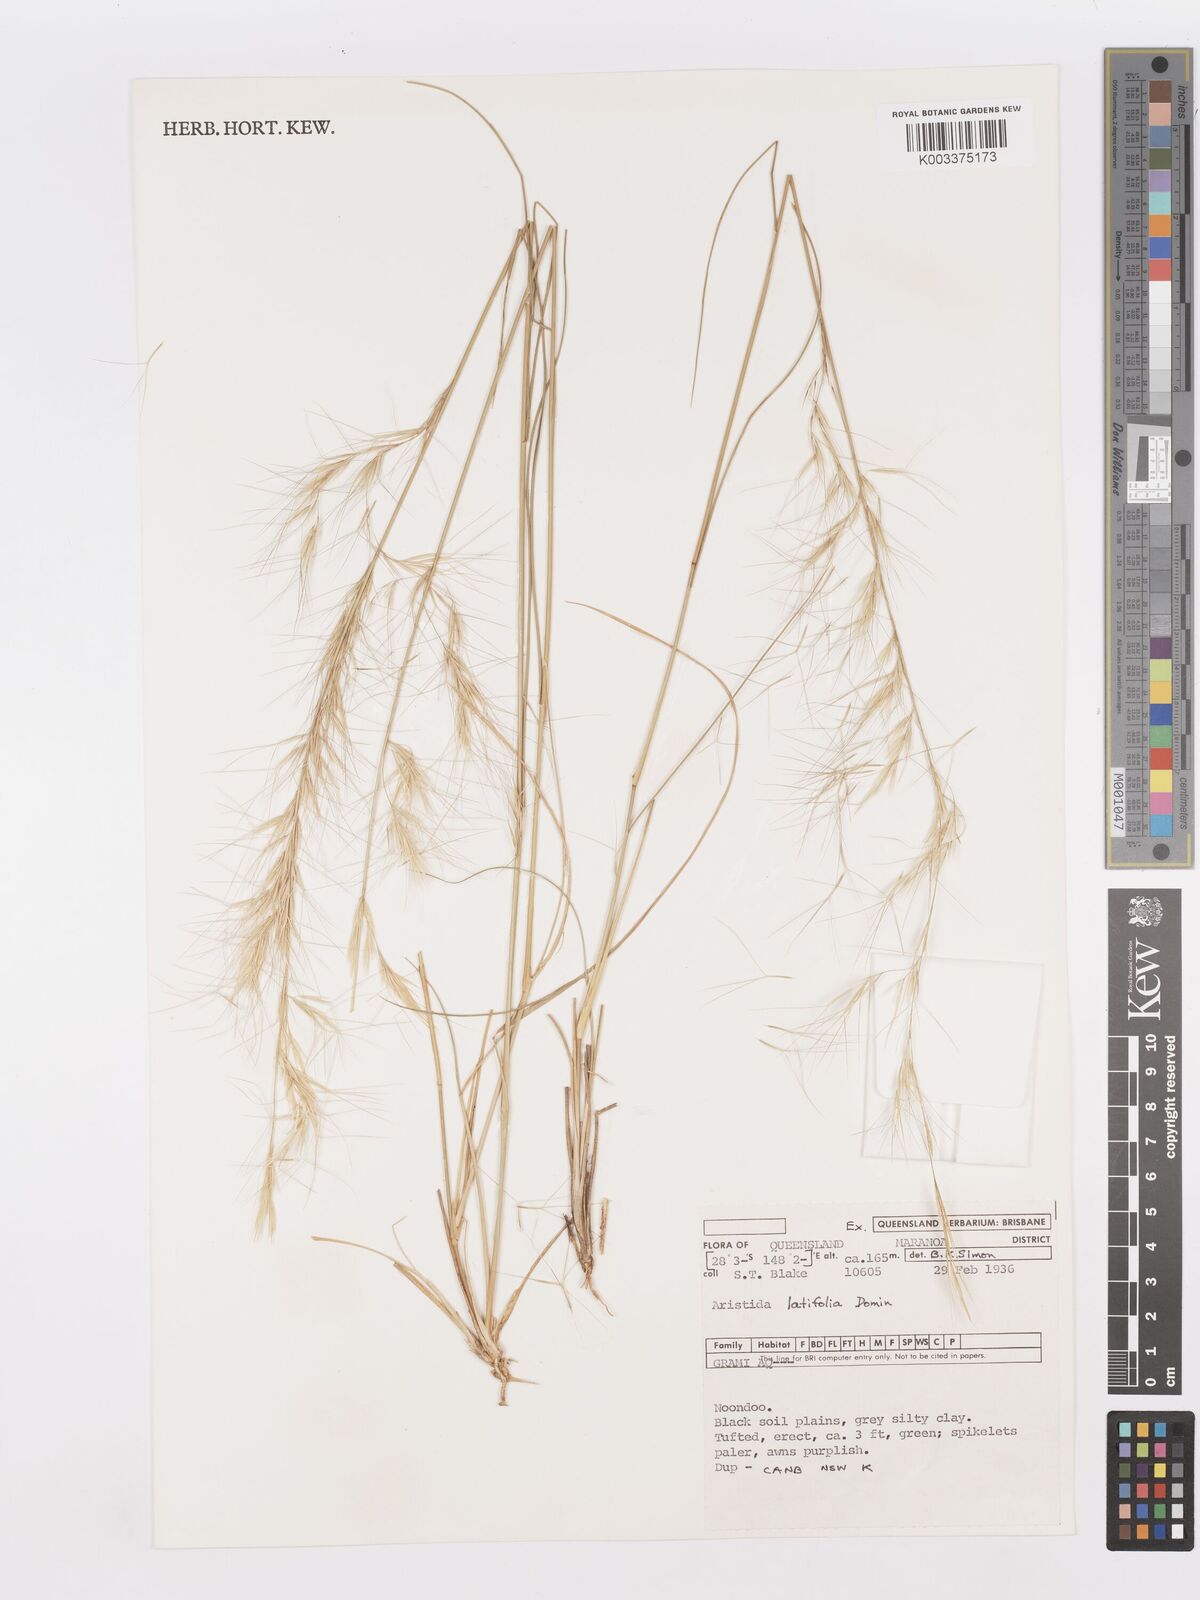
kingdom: Plantae
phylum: Tracheophyta
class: Liliopsida
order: Poales
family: Poaceae
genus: Aristida
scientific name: Aristida latifolia
